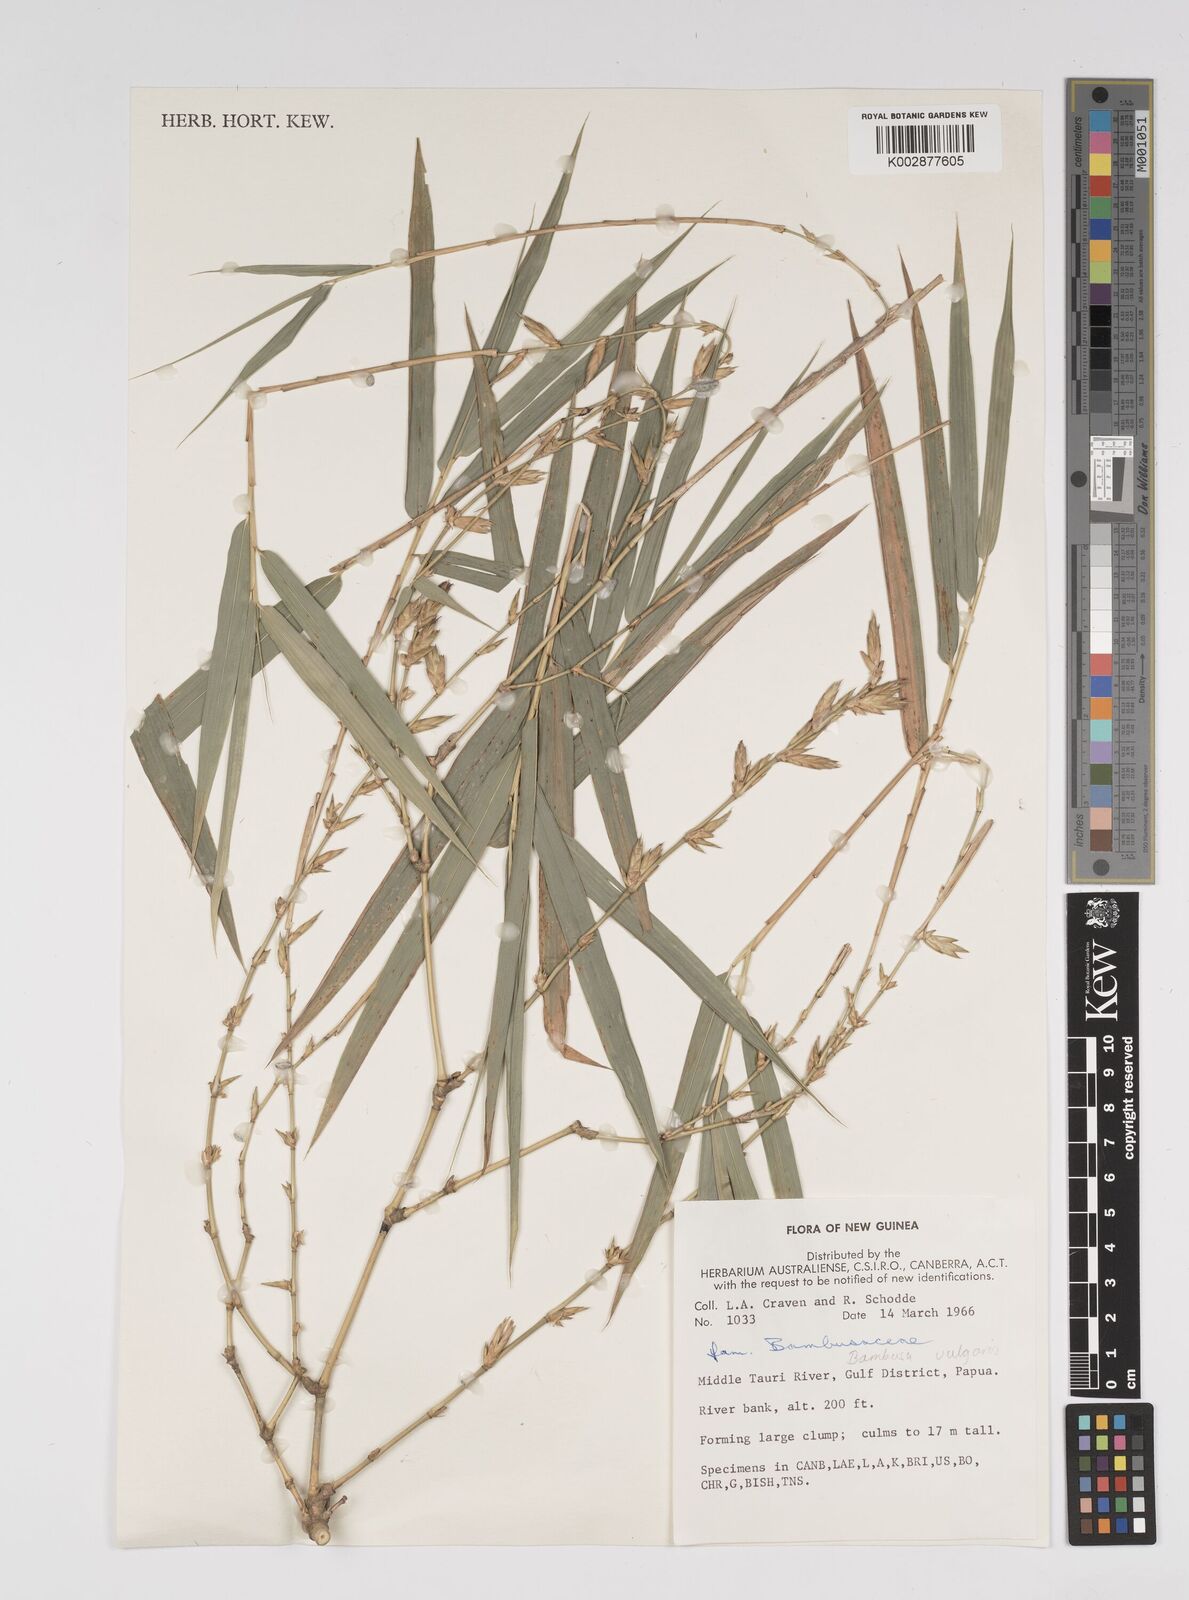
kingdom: Plantae
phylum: Tracheophyta
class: Liliopsida
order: Poales
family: Poaceae
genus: Bambusa
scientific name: Bambusa balcooa
